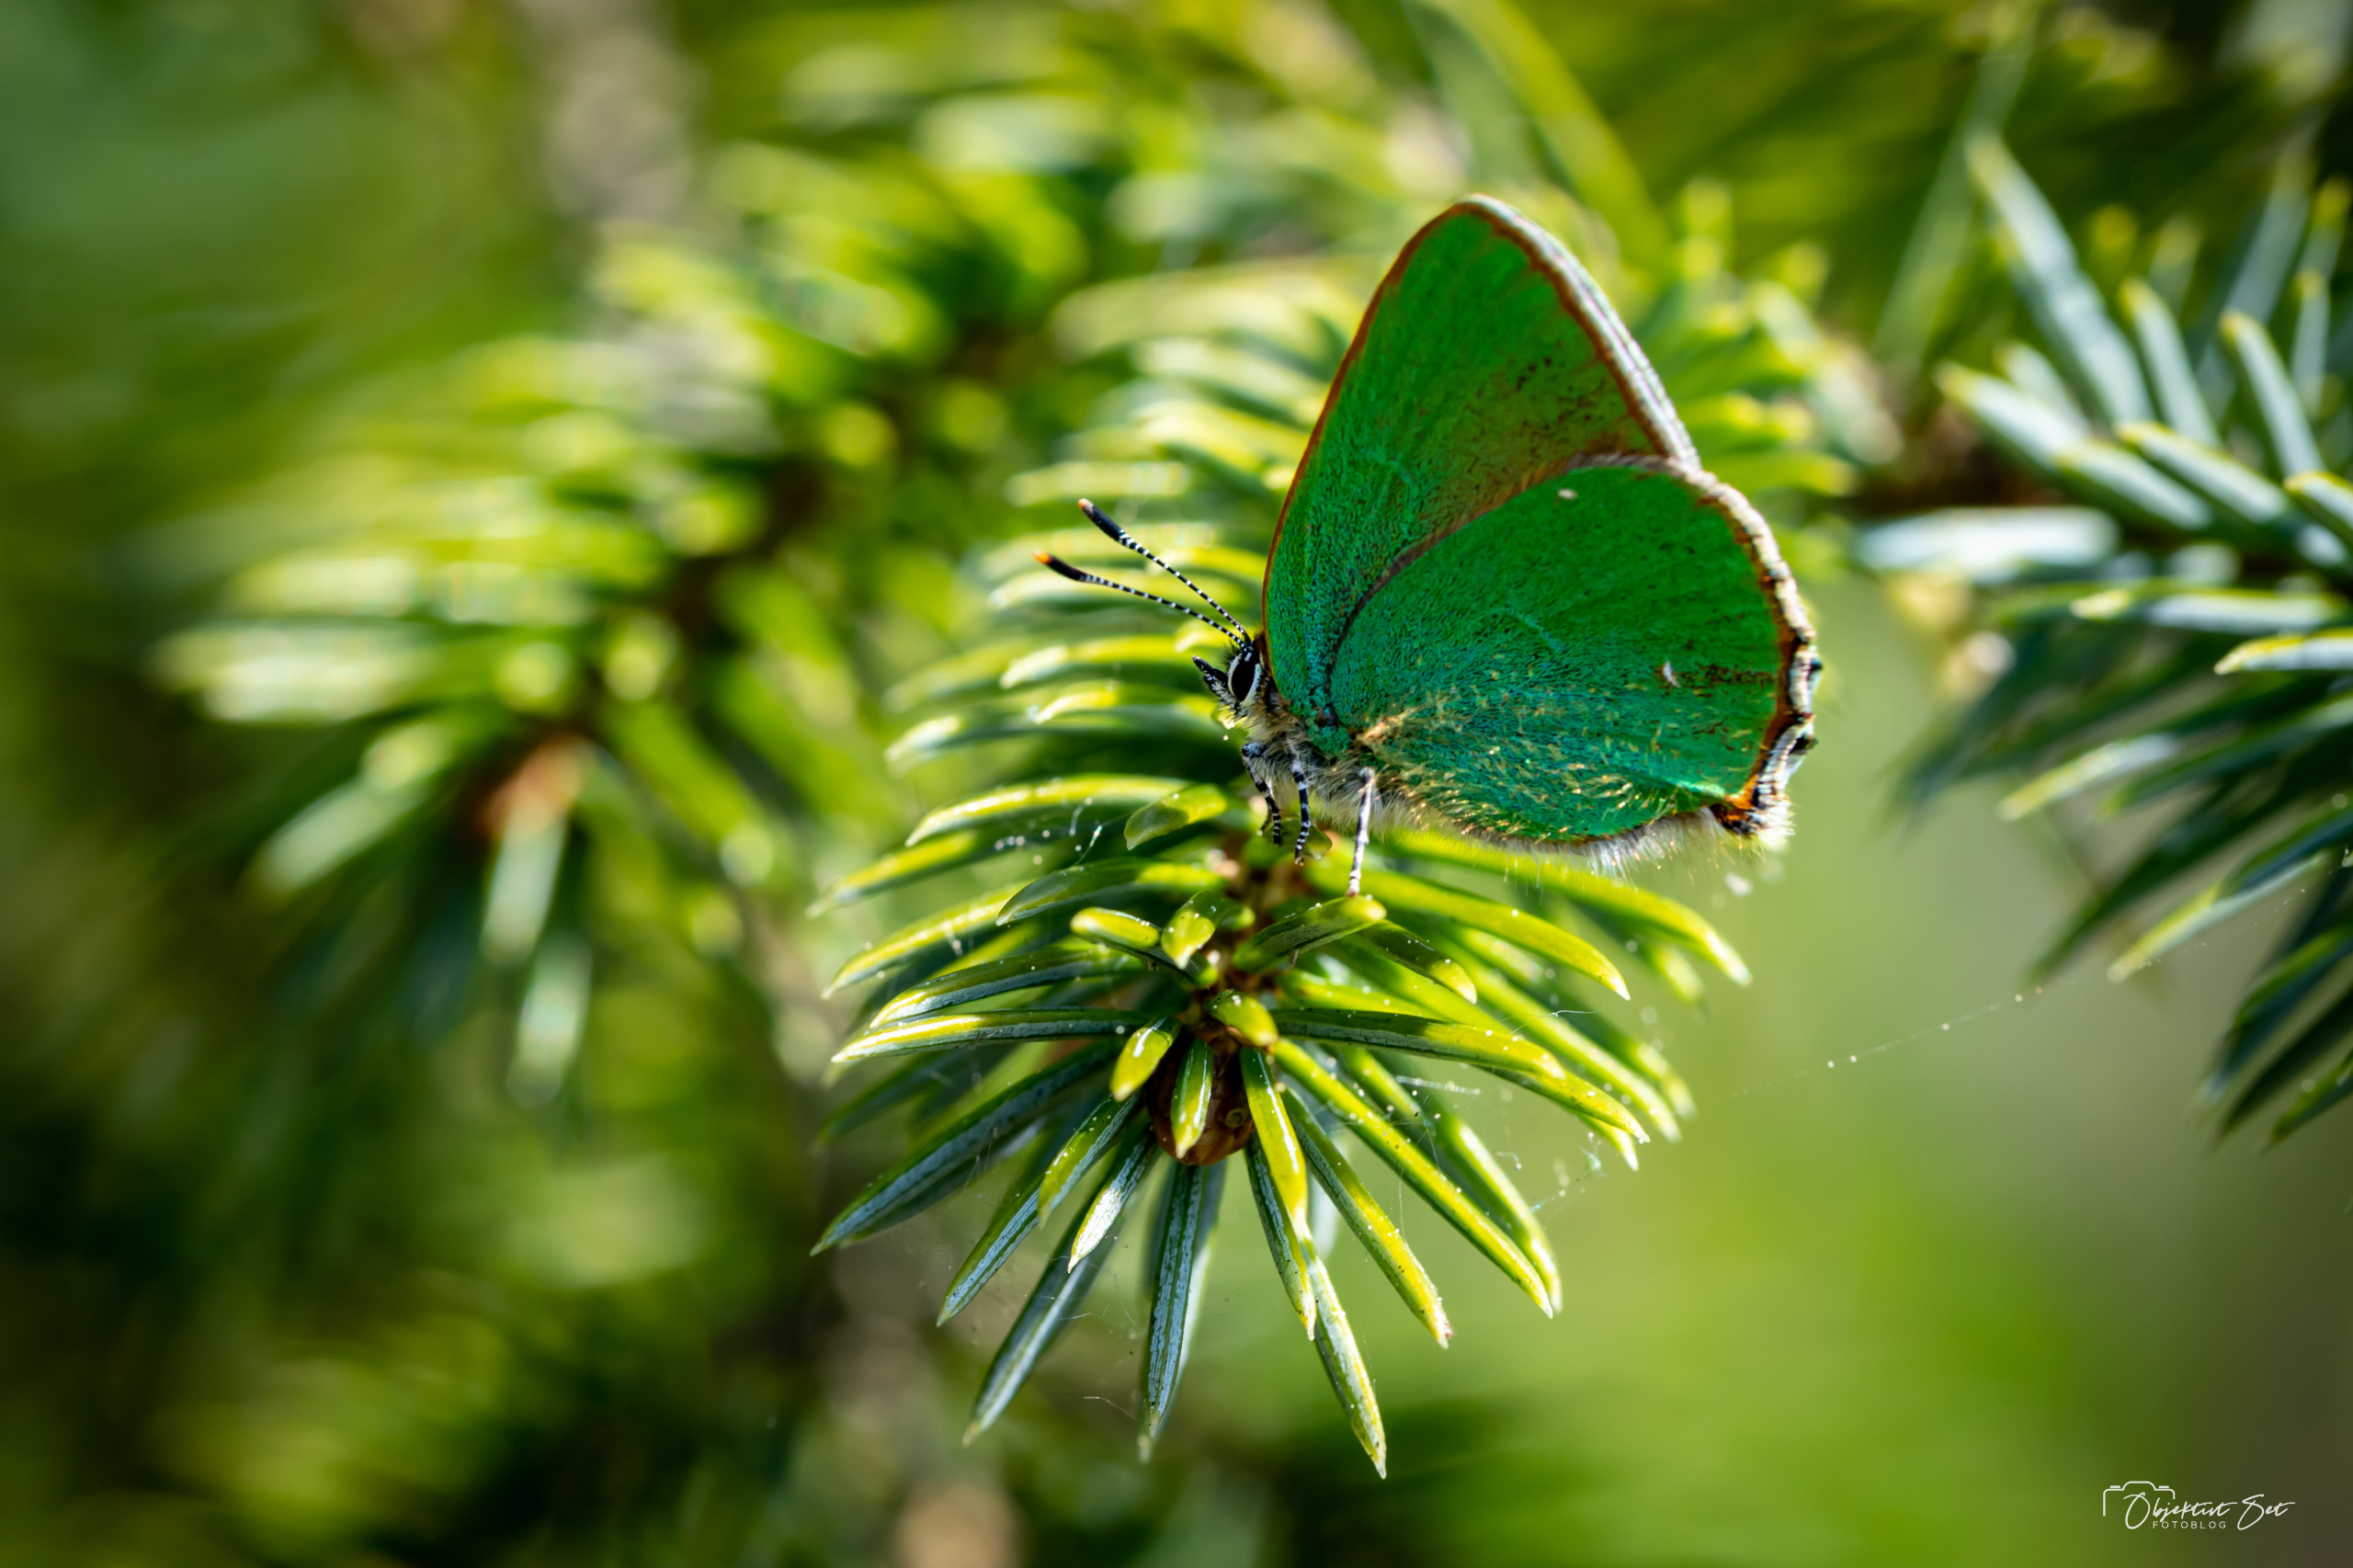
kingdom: Animalia
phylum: Arthropoda
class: Insecta
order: Lepidoptera
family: Lycaenidae
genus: Callophrys
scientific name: Callophrys rubi
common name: Grøn busksommerfugl
